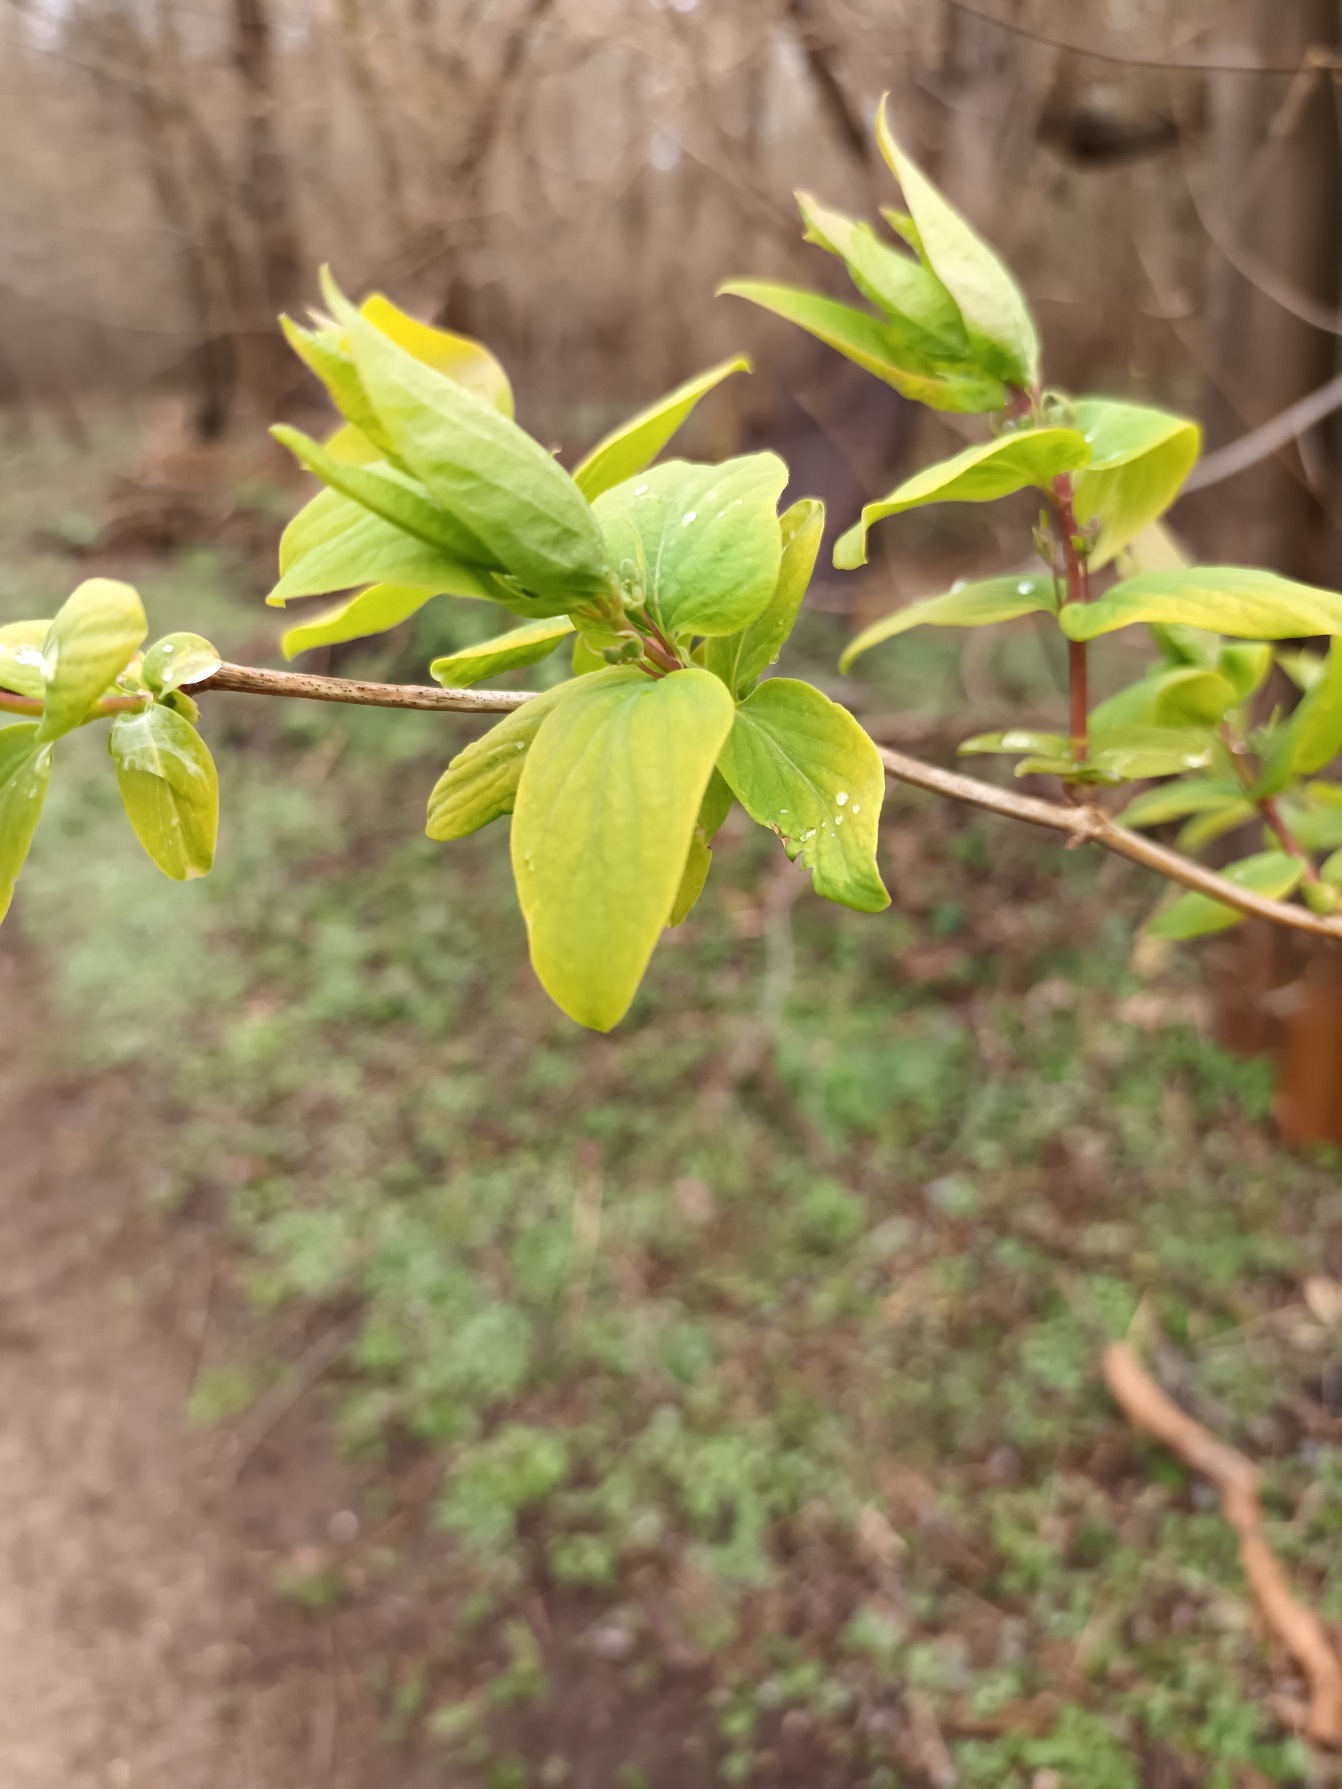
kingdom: Plantae
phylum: Tracheophyta
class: Magnoliopsida
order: Dipsacales
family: Caprifoliaceae
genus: Lonicera
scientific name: Lonicera tatarica
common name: Tatarisk gedeblad
